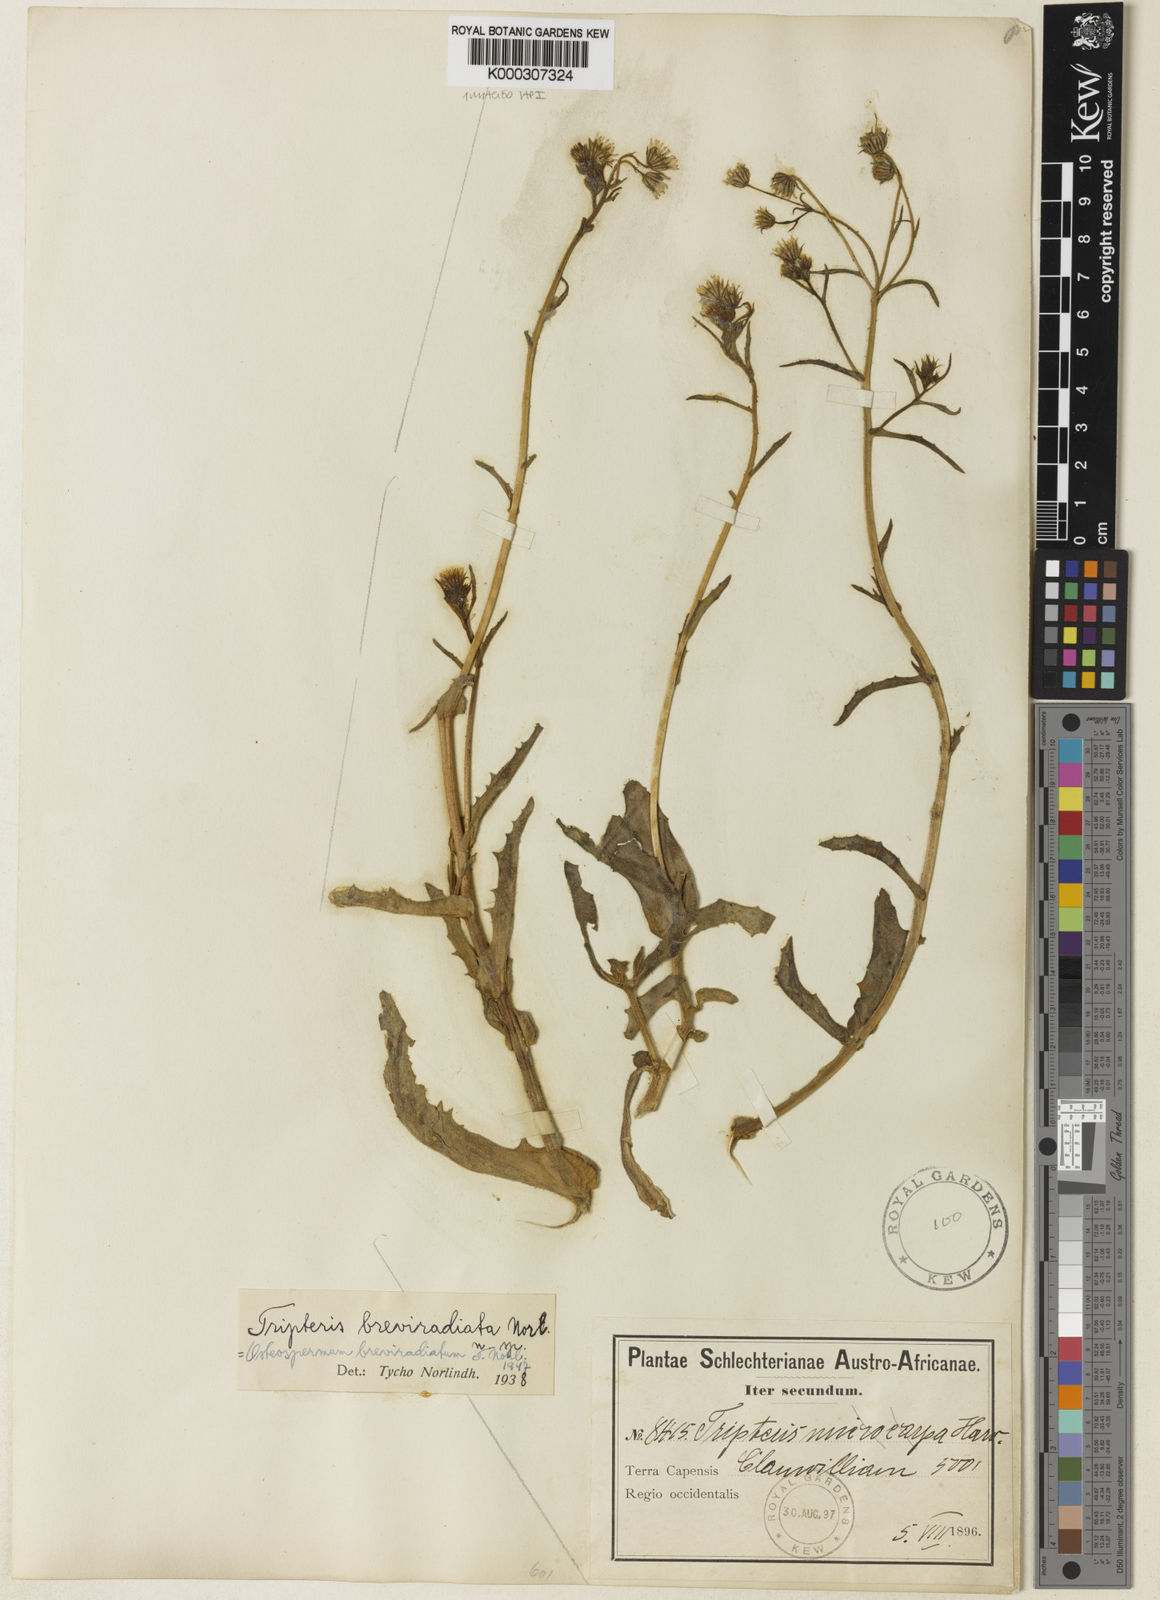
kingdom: Plantae
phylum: Tracheophyta
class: Magnoliopsida
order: Asterales
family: Asteraceae
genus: Osteospermum
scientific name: Osteospermum breviradiatum
